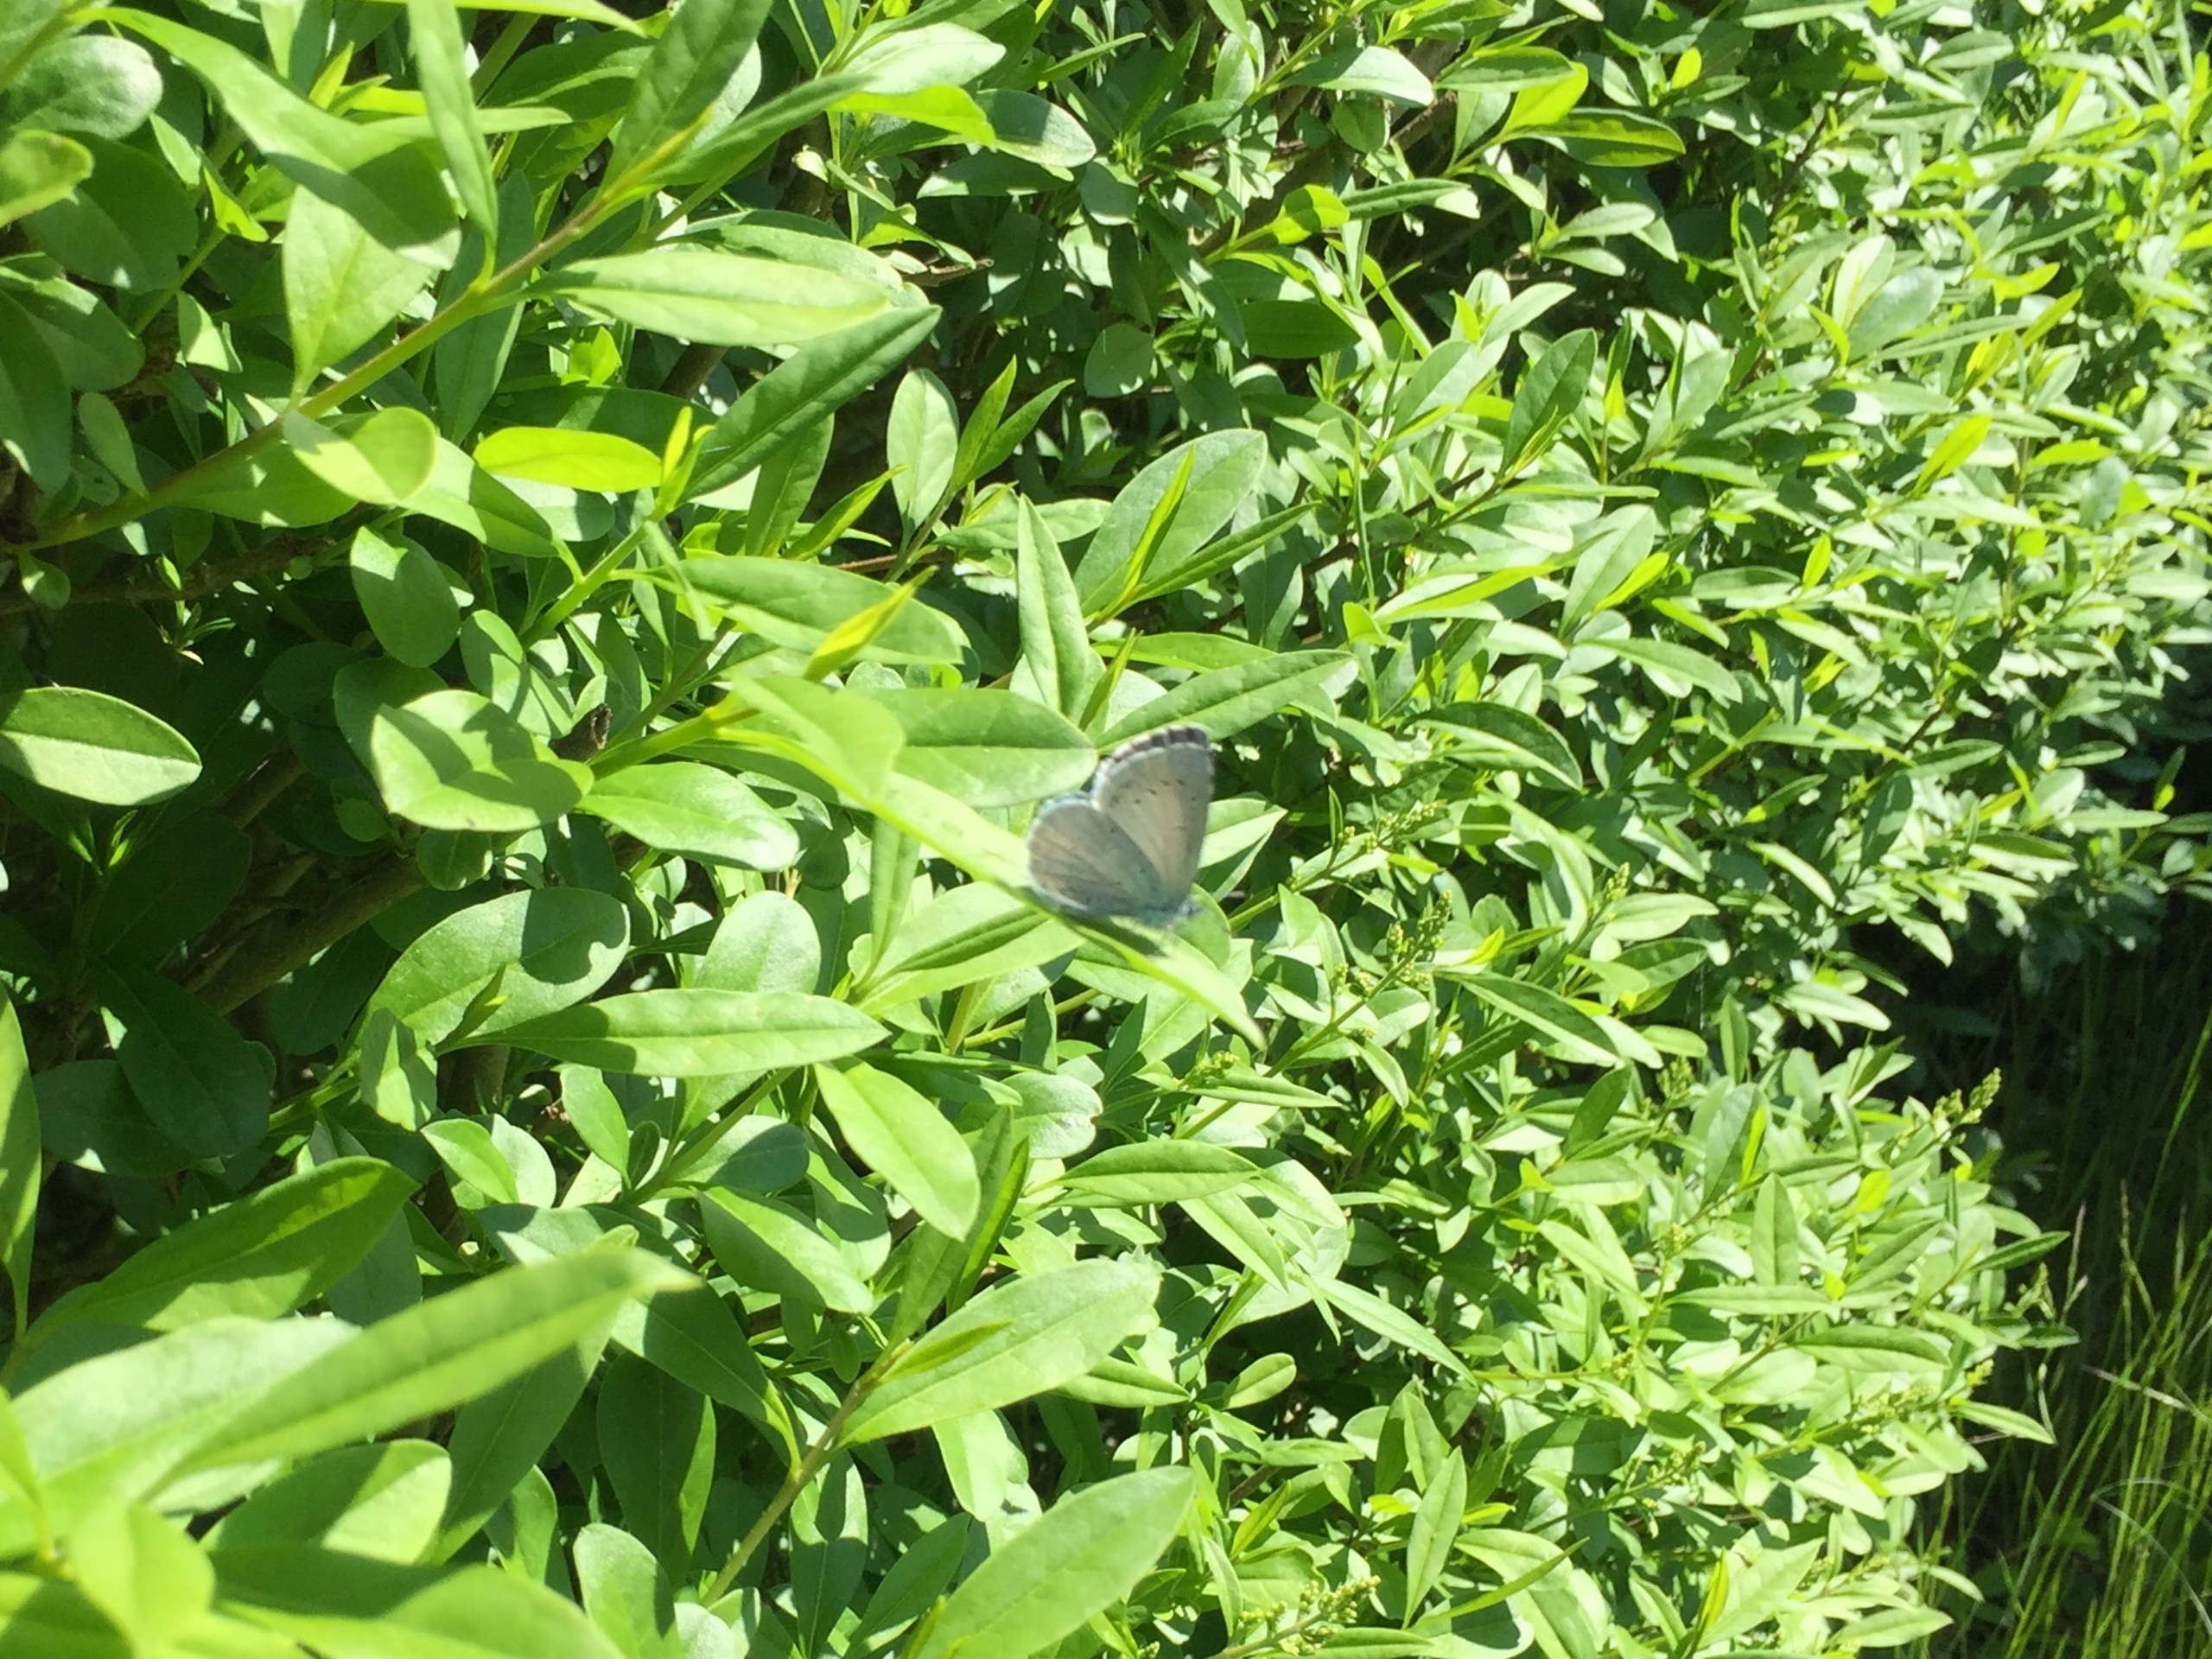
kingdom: Animalia
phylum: Arthropoda
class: Insecta
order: Lepidoptera
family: Lycaenidae
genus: Celastrina
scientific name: Celastrina argiolus
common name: Skovblåfugl
